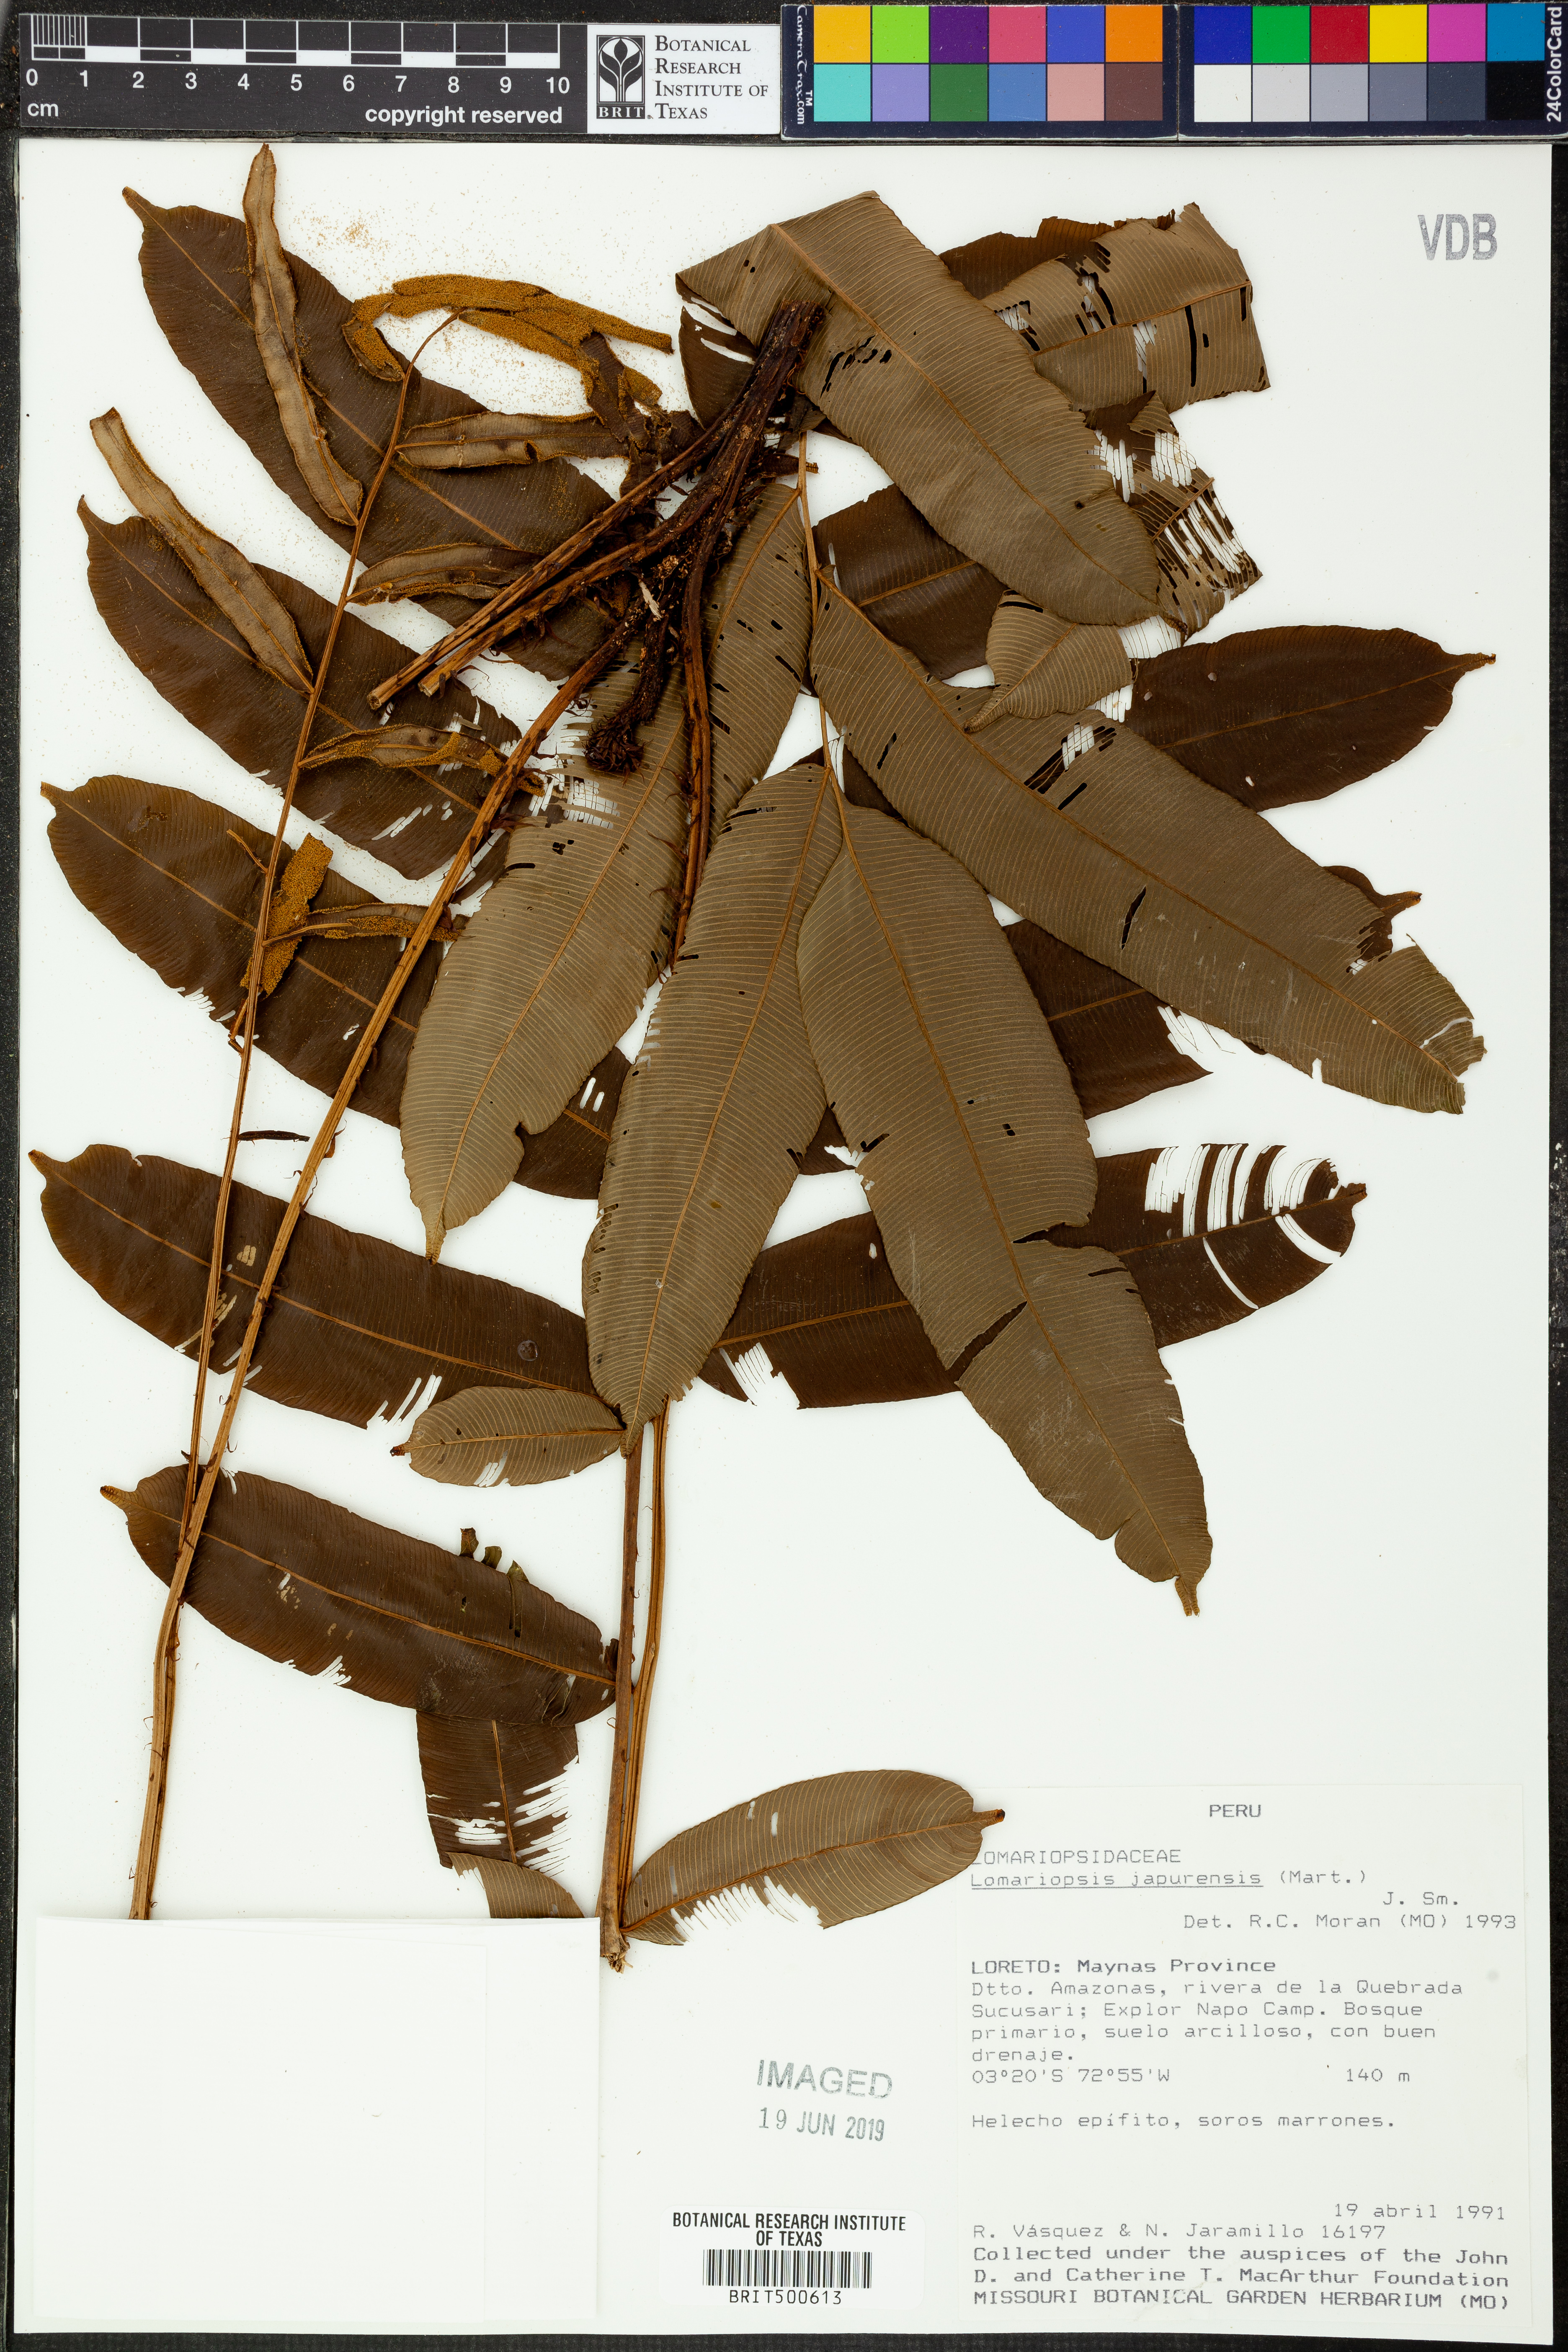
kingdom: Plantae
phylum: Tracheophyta
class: Polypodiopsida
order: Polypodiales
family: Lomariopsidaceae
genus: Lomariopsis
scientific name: Lomariopsis japurensis
